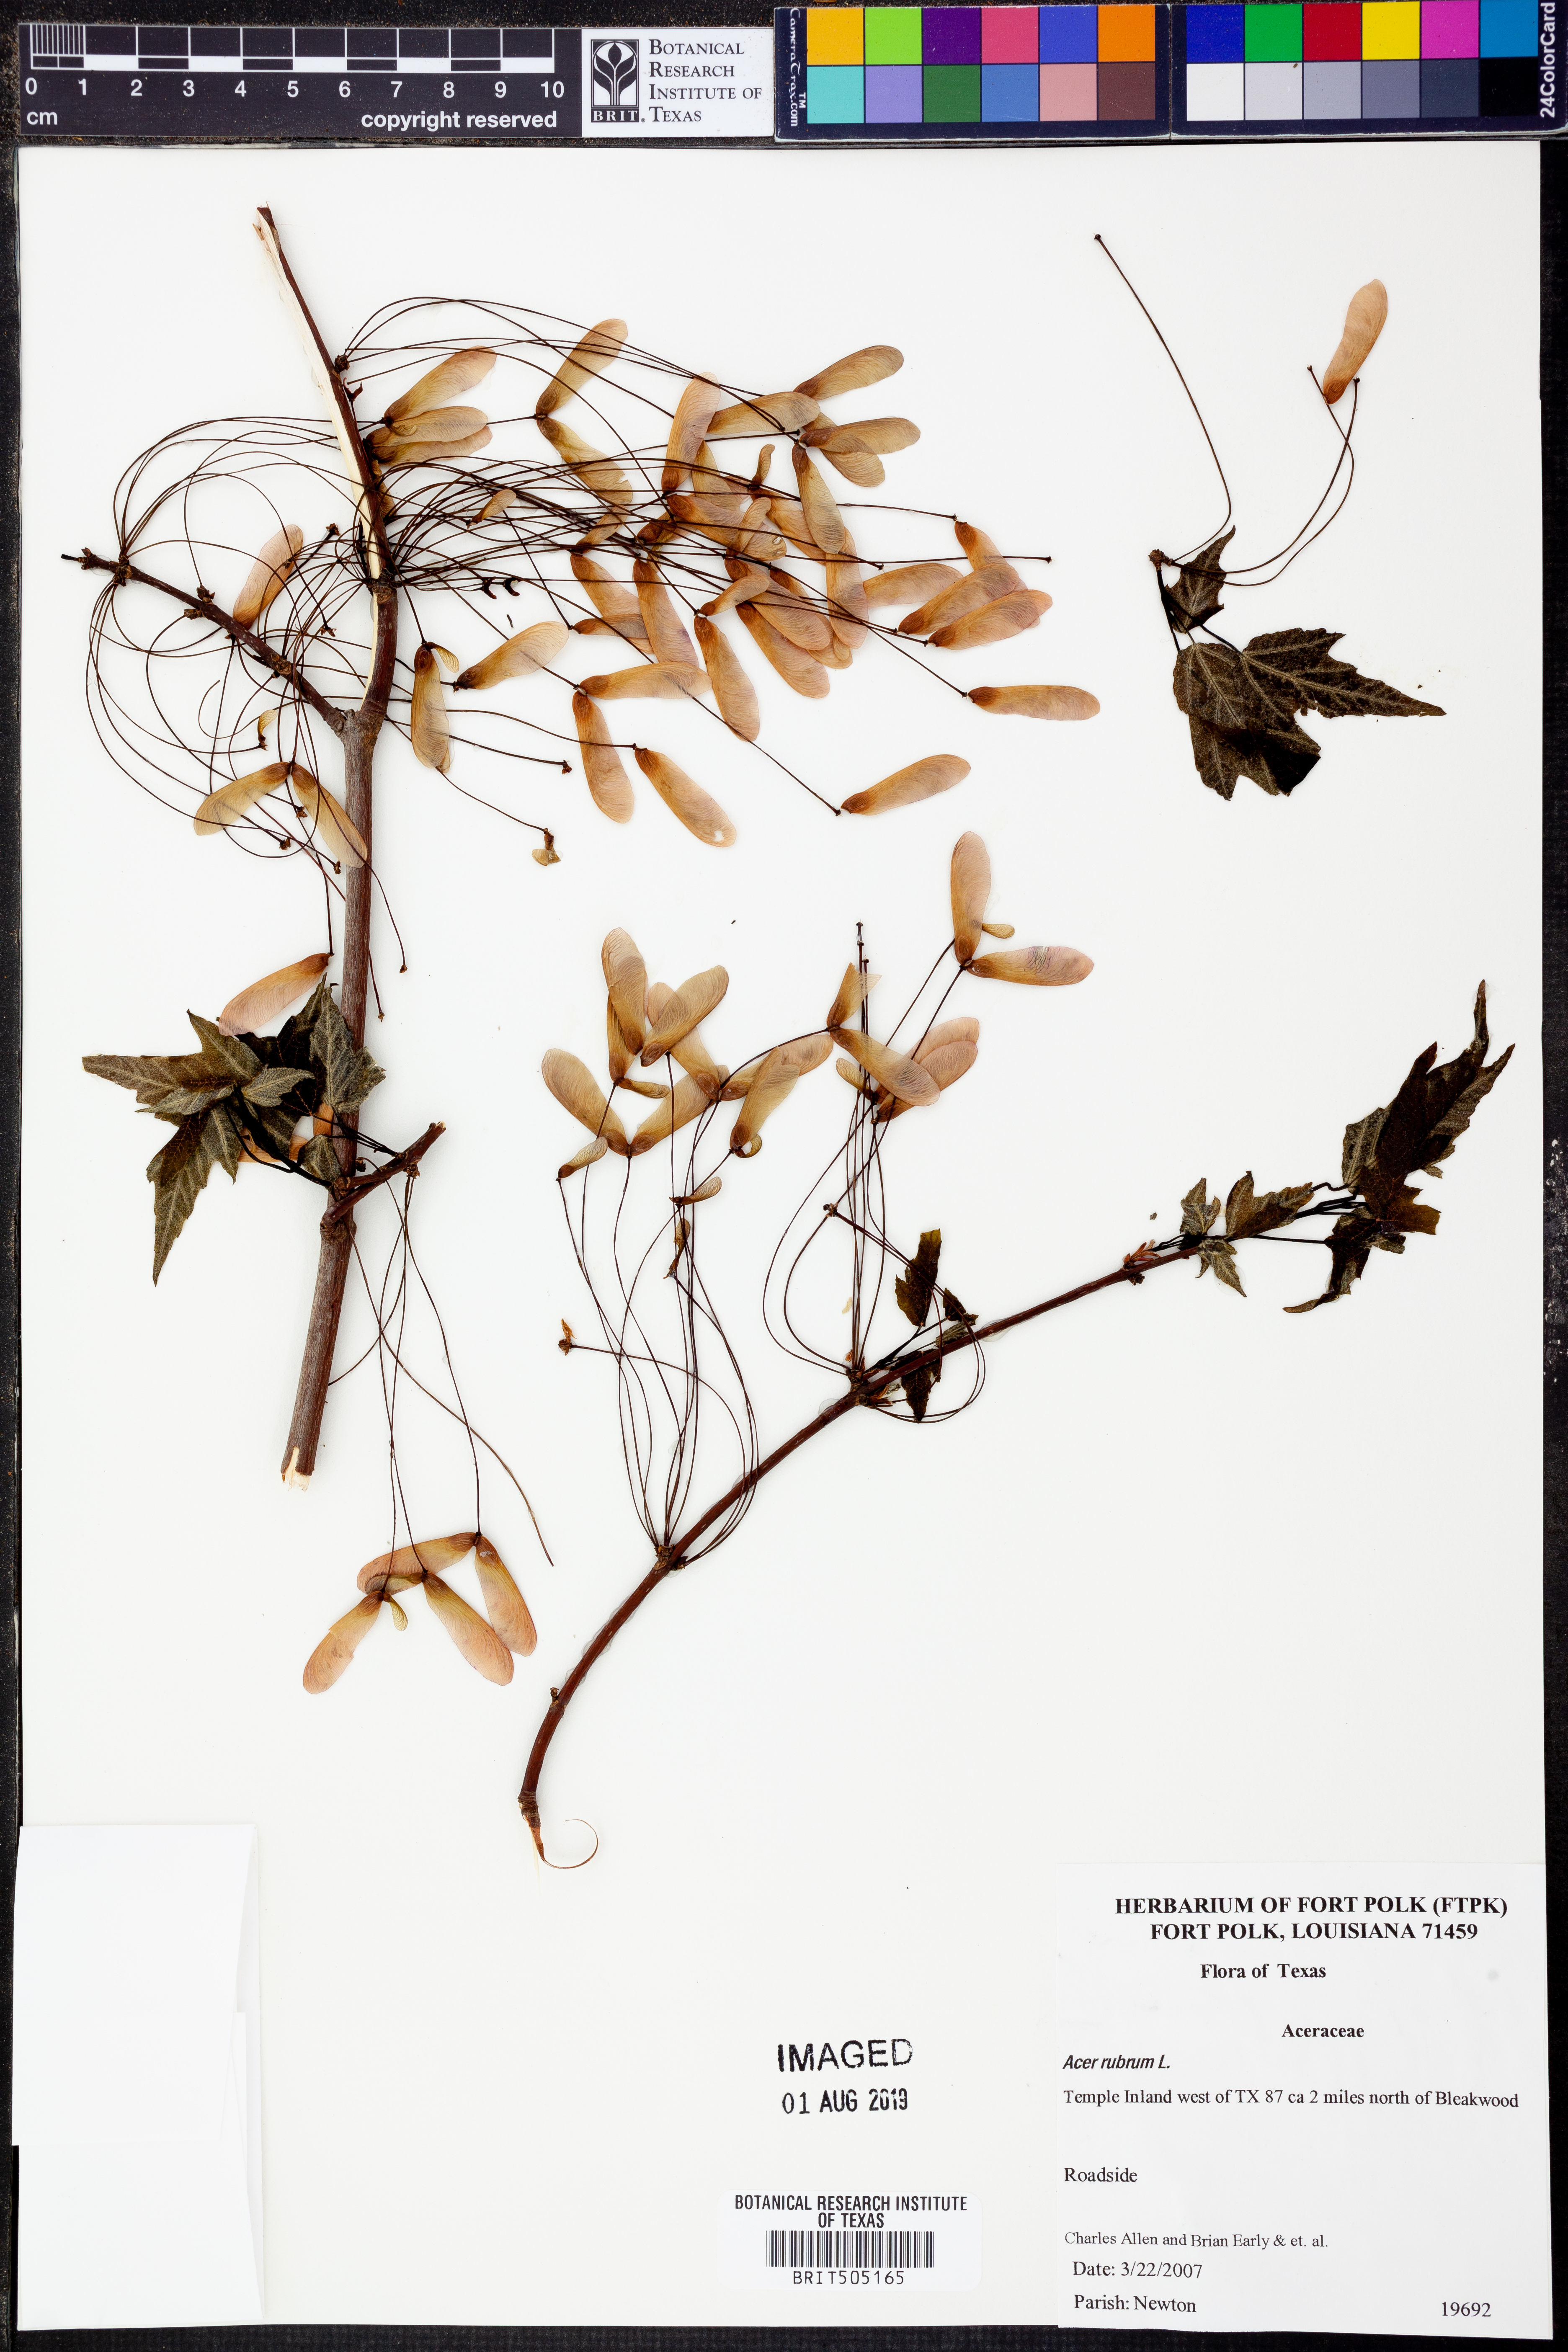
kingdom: Plantae
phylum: Tracheophyta
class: Magnoliopsida
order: Sapindales
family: Sapindaceae
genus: Acer
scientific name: Acer rubrum
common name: Red maple
